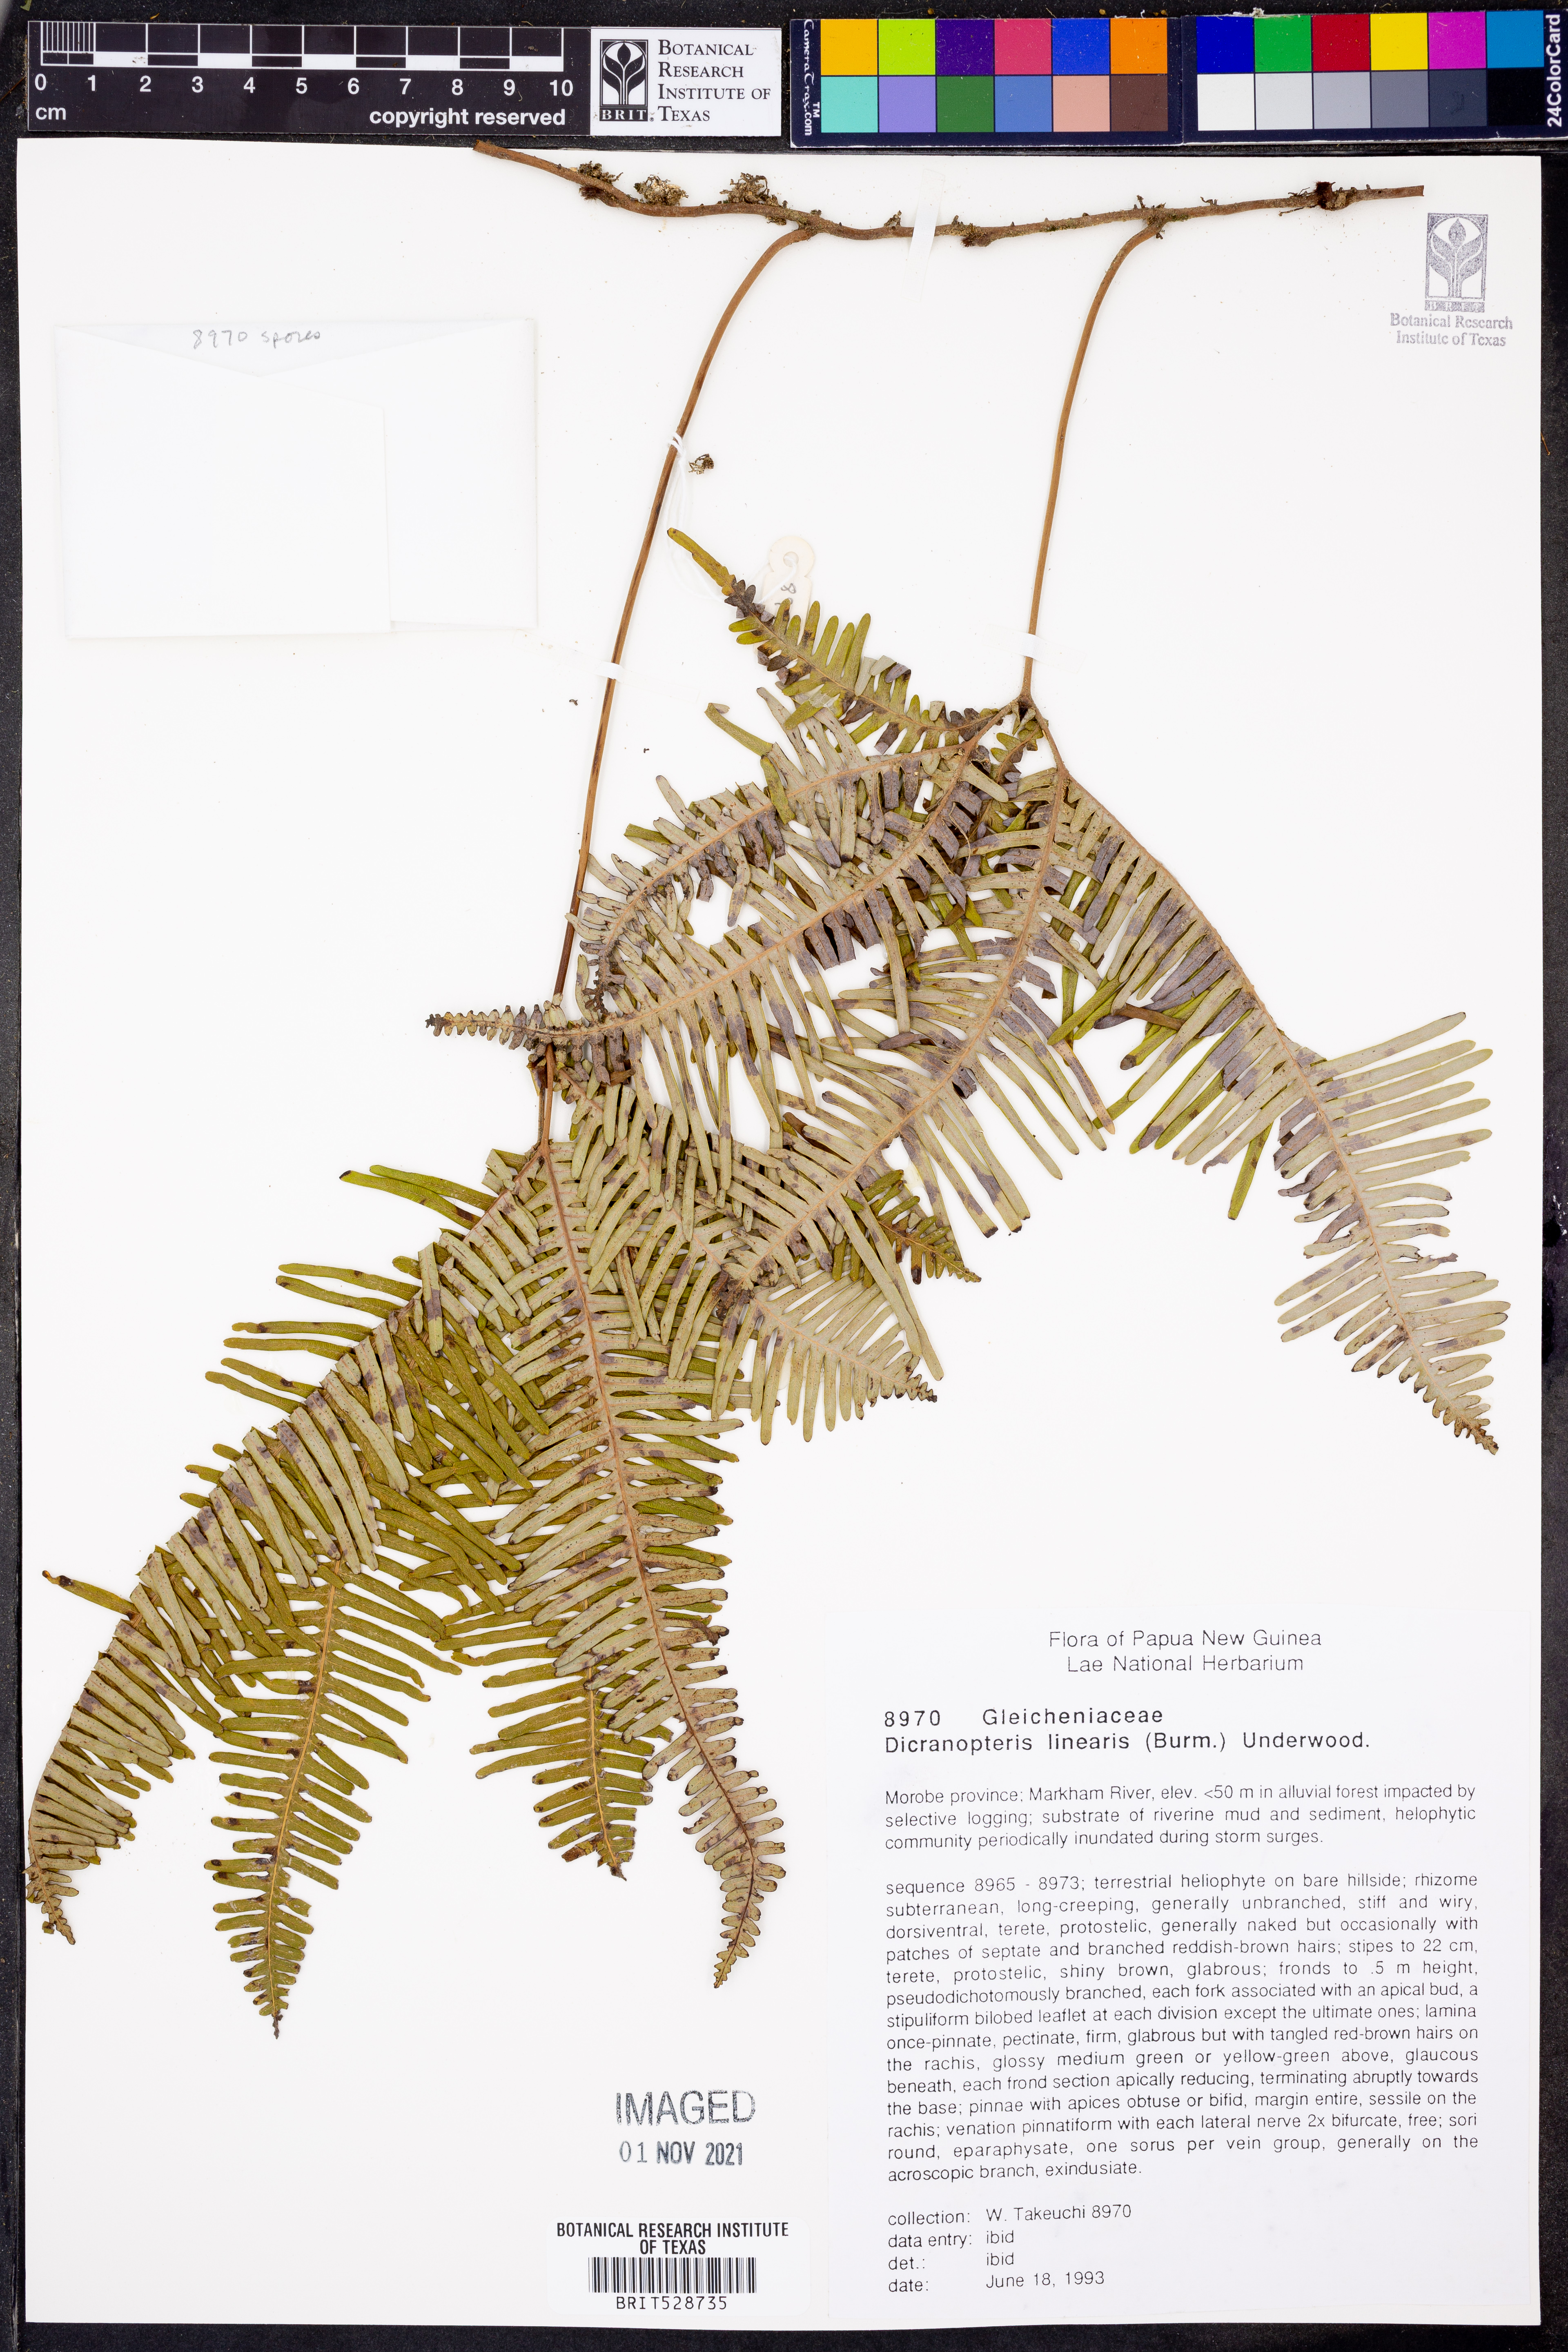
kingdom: Plantae
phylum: Tracheophyta
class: Polypodiopsida
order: Gleicheniales
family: Gleicheniaceae
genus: Dicranopteris
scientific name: Dicranopteris linearis
